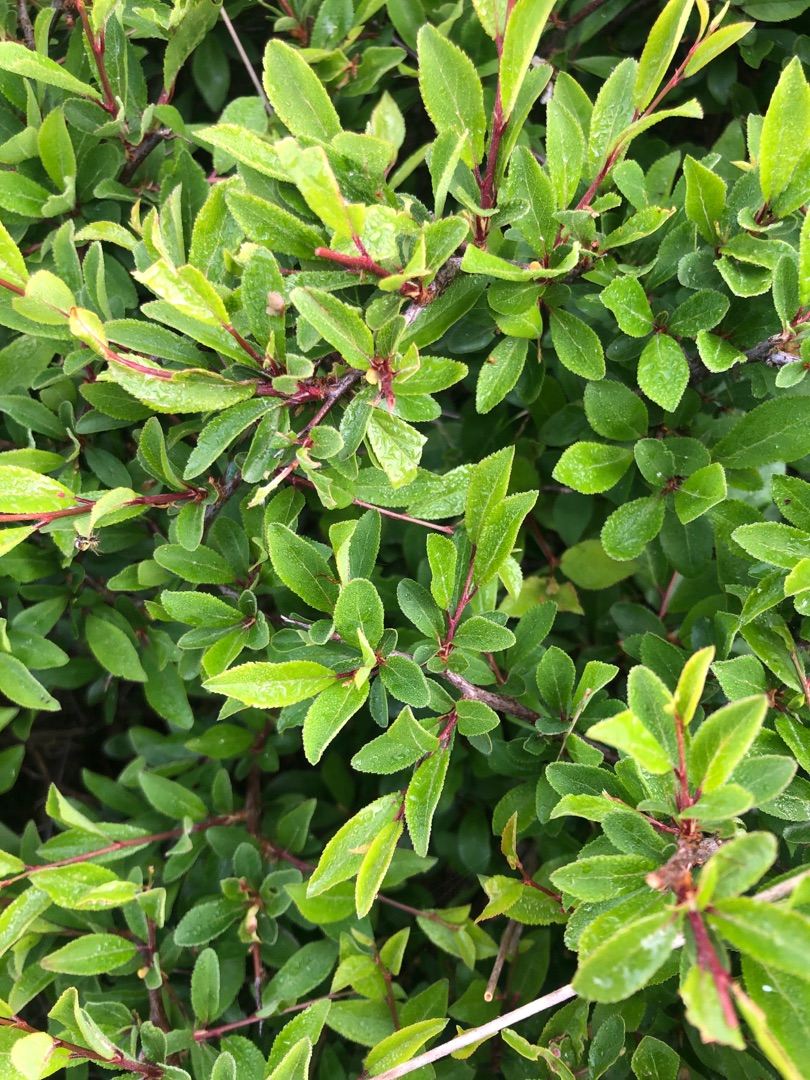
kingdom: Plantae
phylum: Tracheophyta
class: Magnoliopsida
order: Rosales
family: Rosaceae
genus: Prunus
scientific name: Prunus spinosa
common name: Slåen
